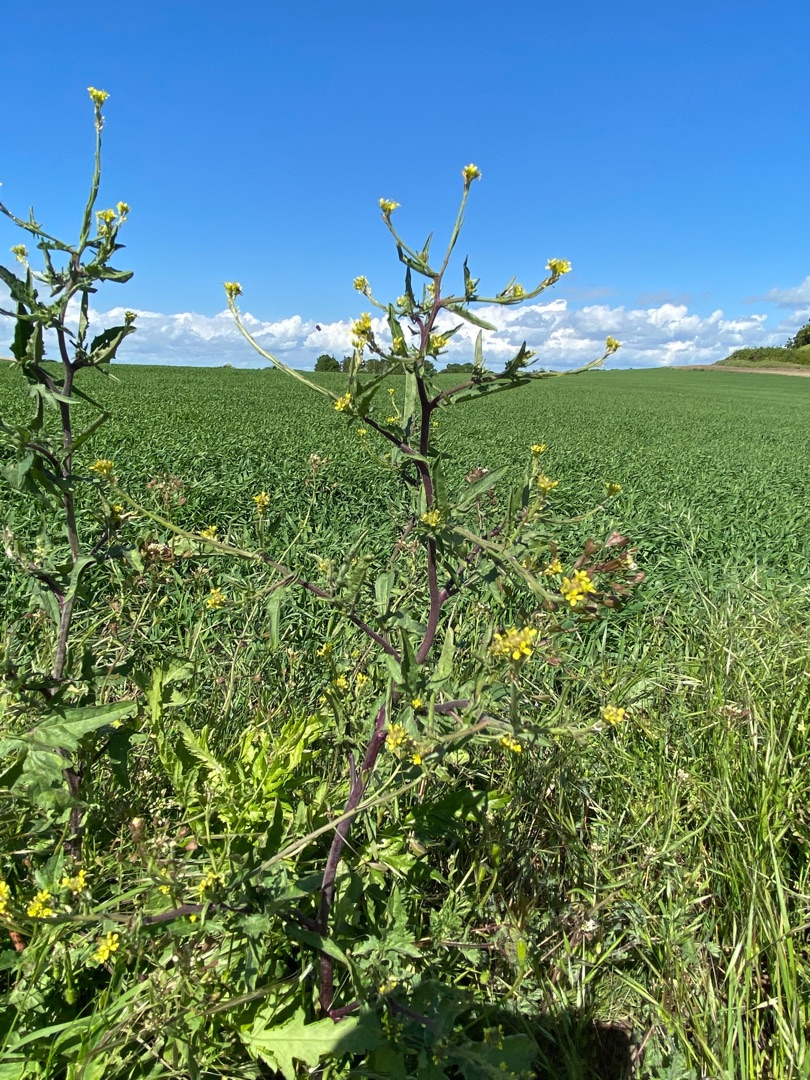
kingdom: Plantae
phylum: Tracheophyta
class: Magnoliopsida
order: Brassicales
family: Brassicaceae
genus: Sisymbrium
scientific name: Sisymbrium officinale
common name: Rank vejsennep
